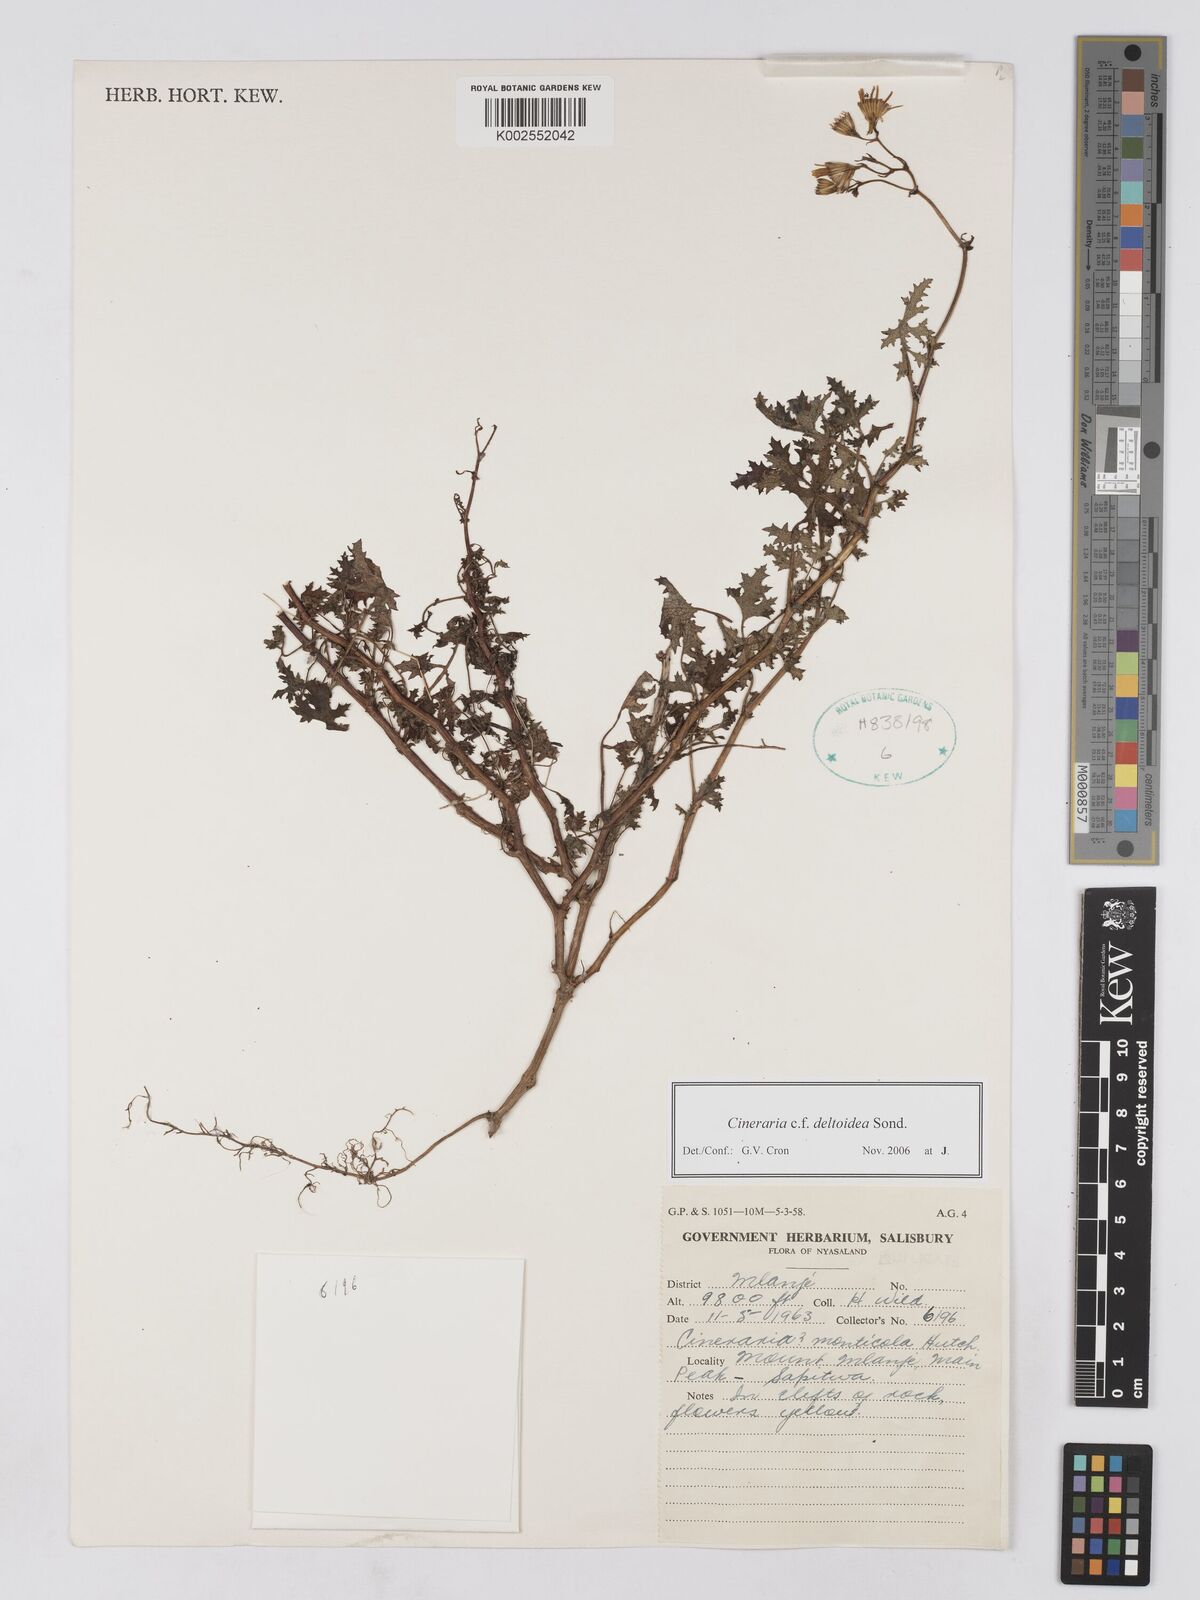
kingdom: Plantae
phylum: Tracheophyta
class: Magnoliopsida
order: Asterales
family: Asteraceae
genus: Cineraria
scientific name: Cineraria deltoidea
